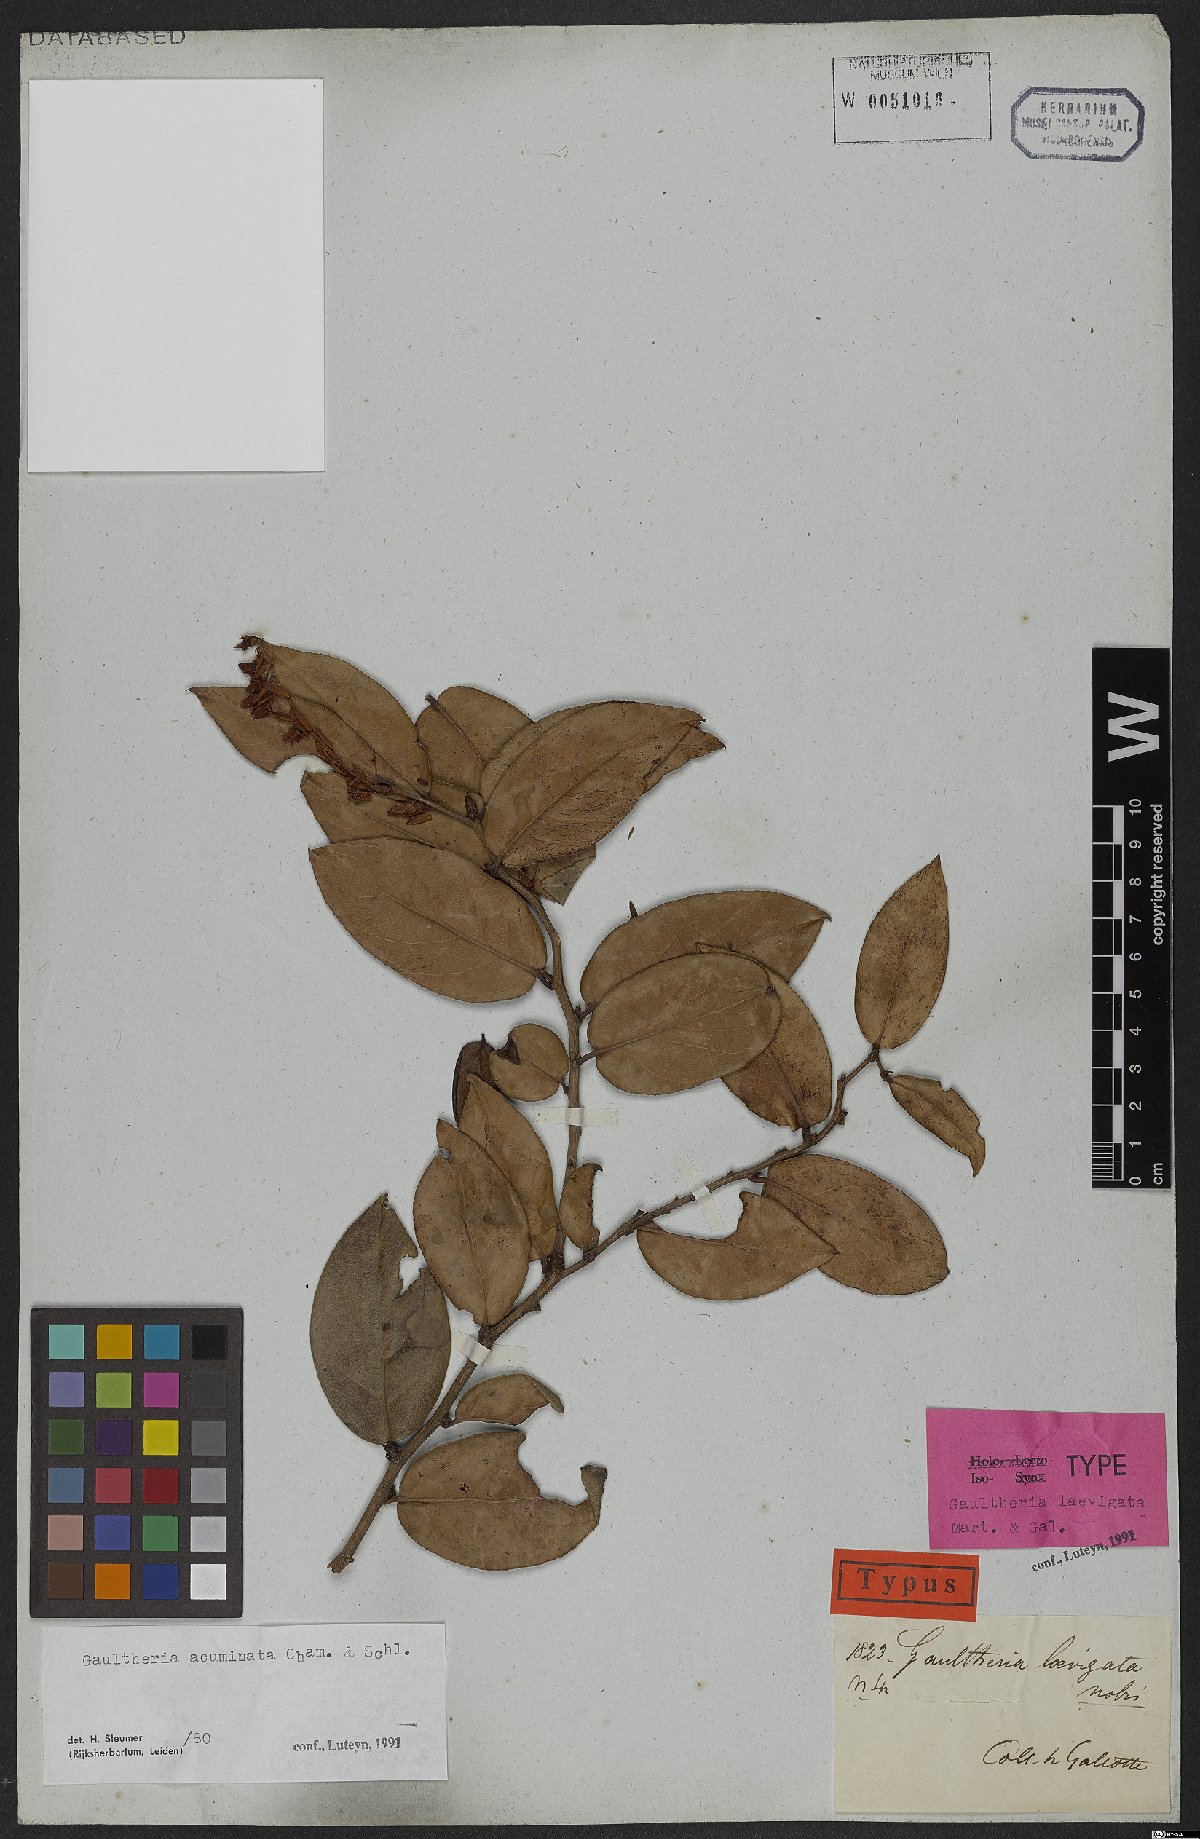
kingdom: Plantae
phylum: Tracheophyta
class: Magnoliopsida
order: Ericales
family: Ericaceae
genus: Gaultheria
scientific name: Gaultheria acuminata
